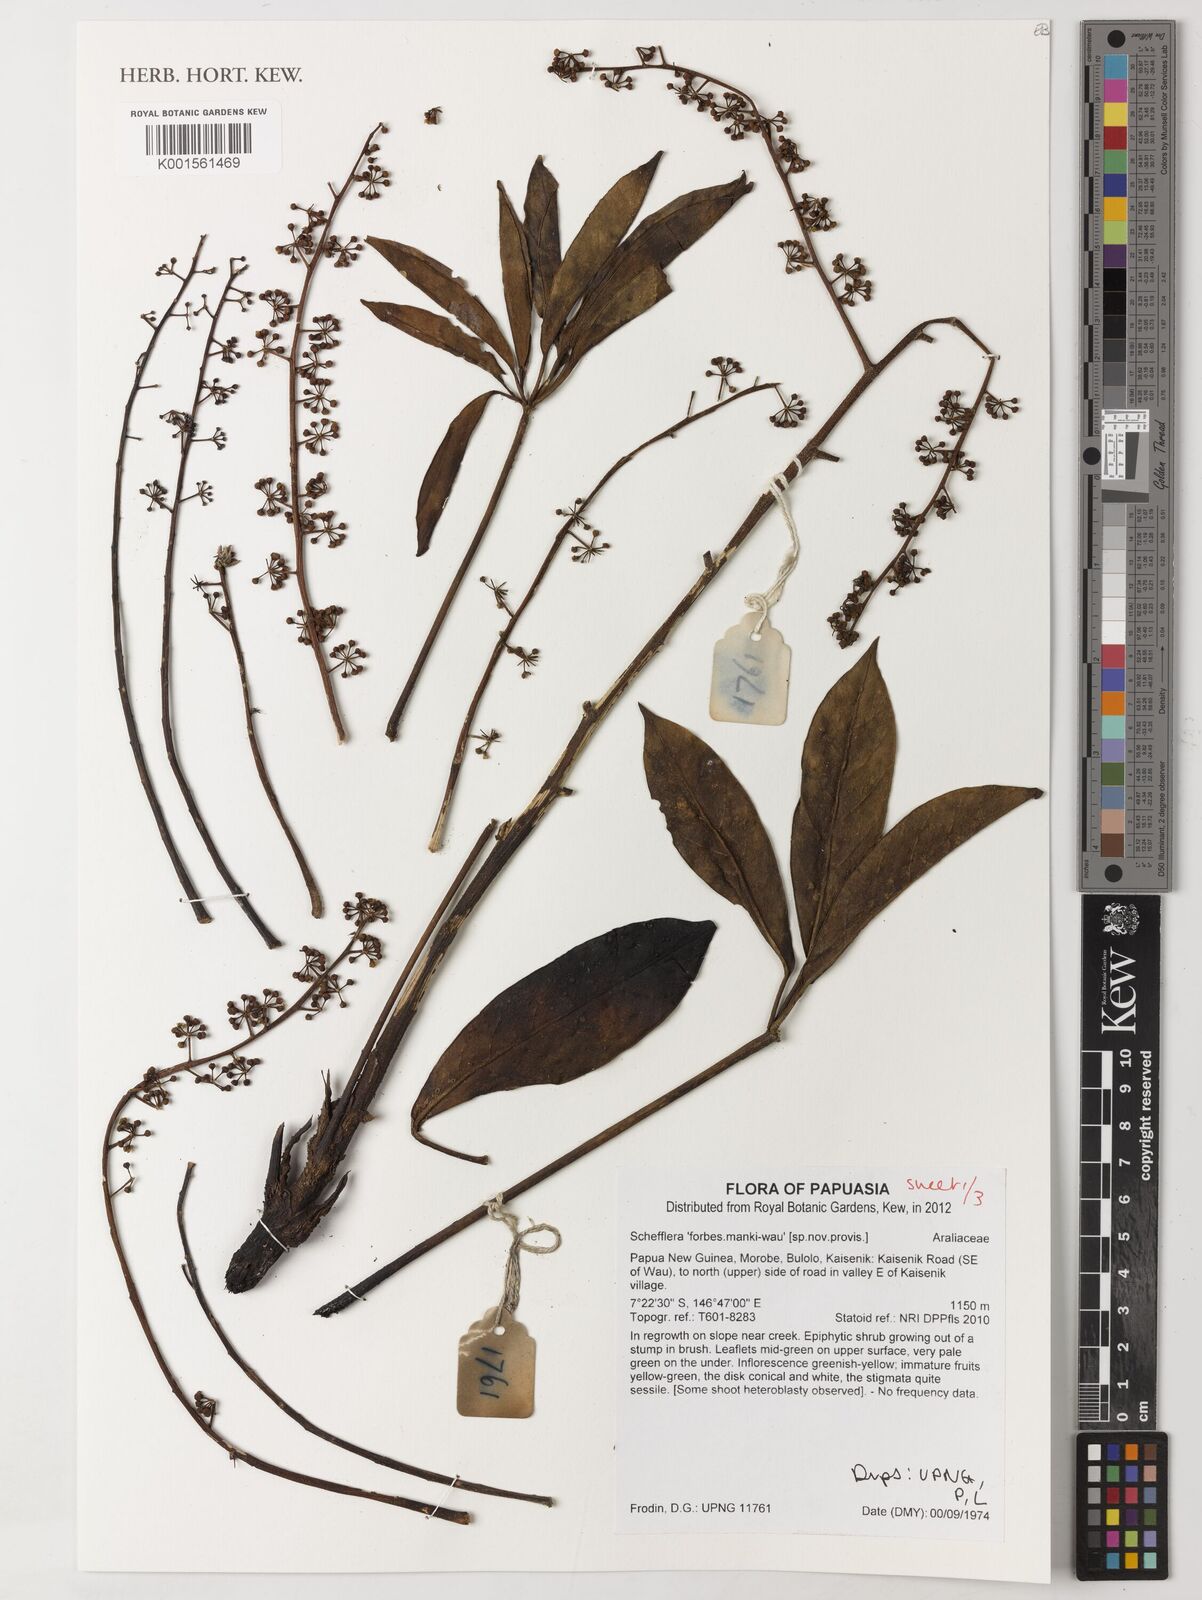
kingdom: Plantae
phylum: Tracheophyta
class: Magnoliopsida
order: Apiales
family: Araliaceae
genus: Schefflera
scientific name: Schefflera
